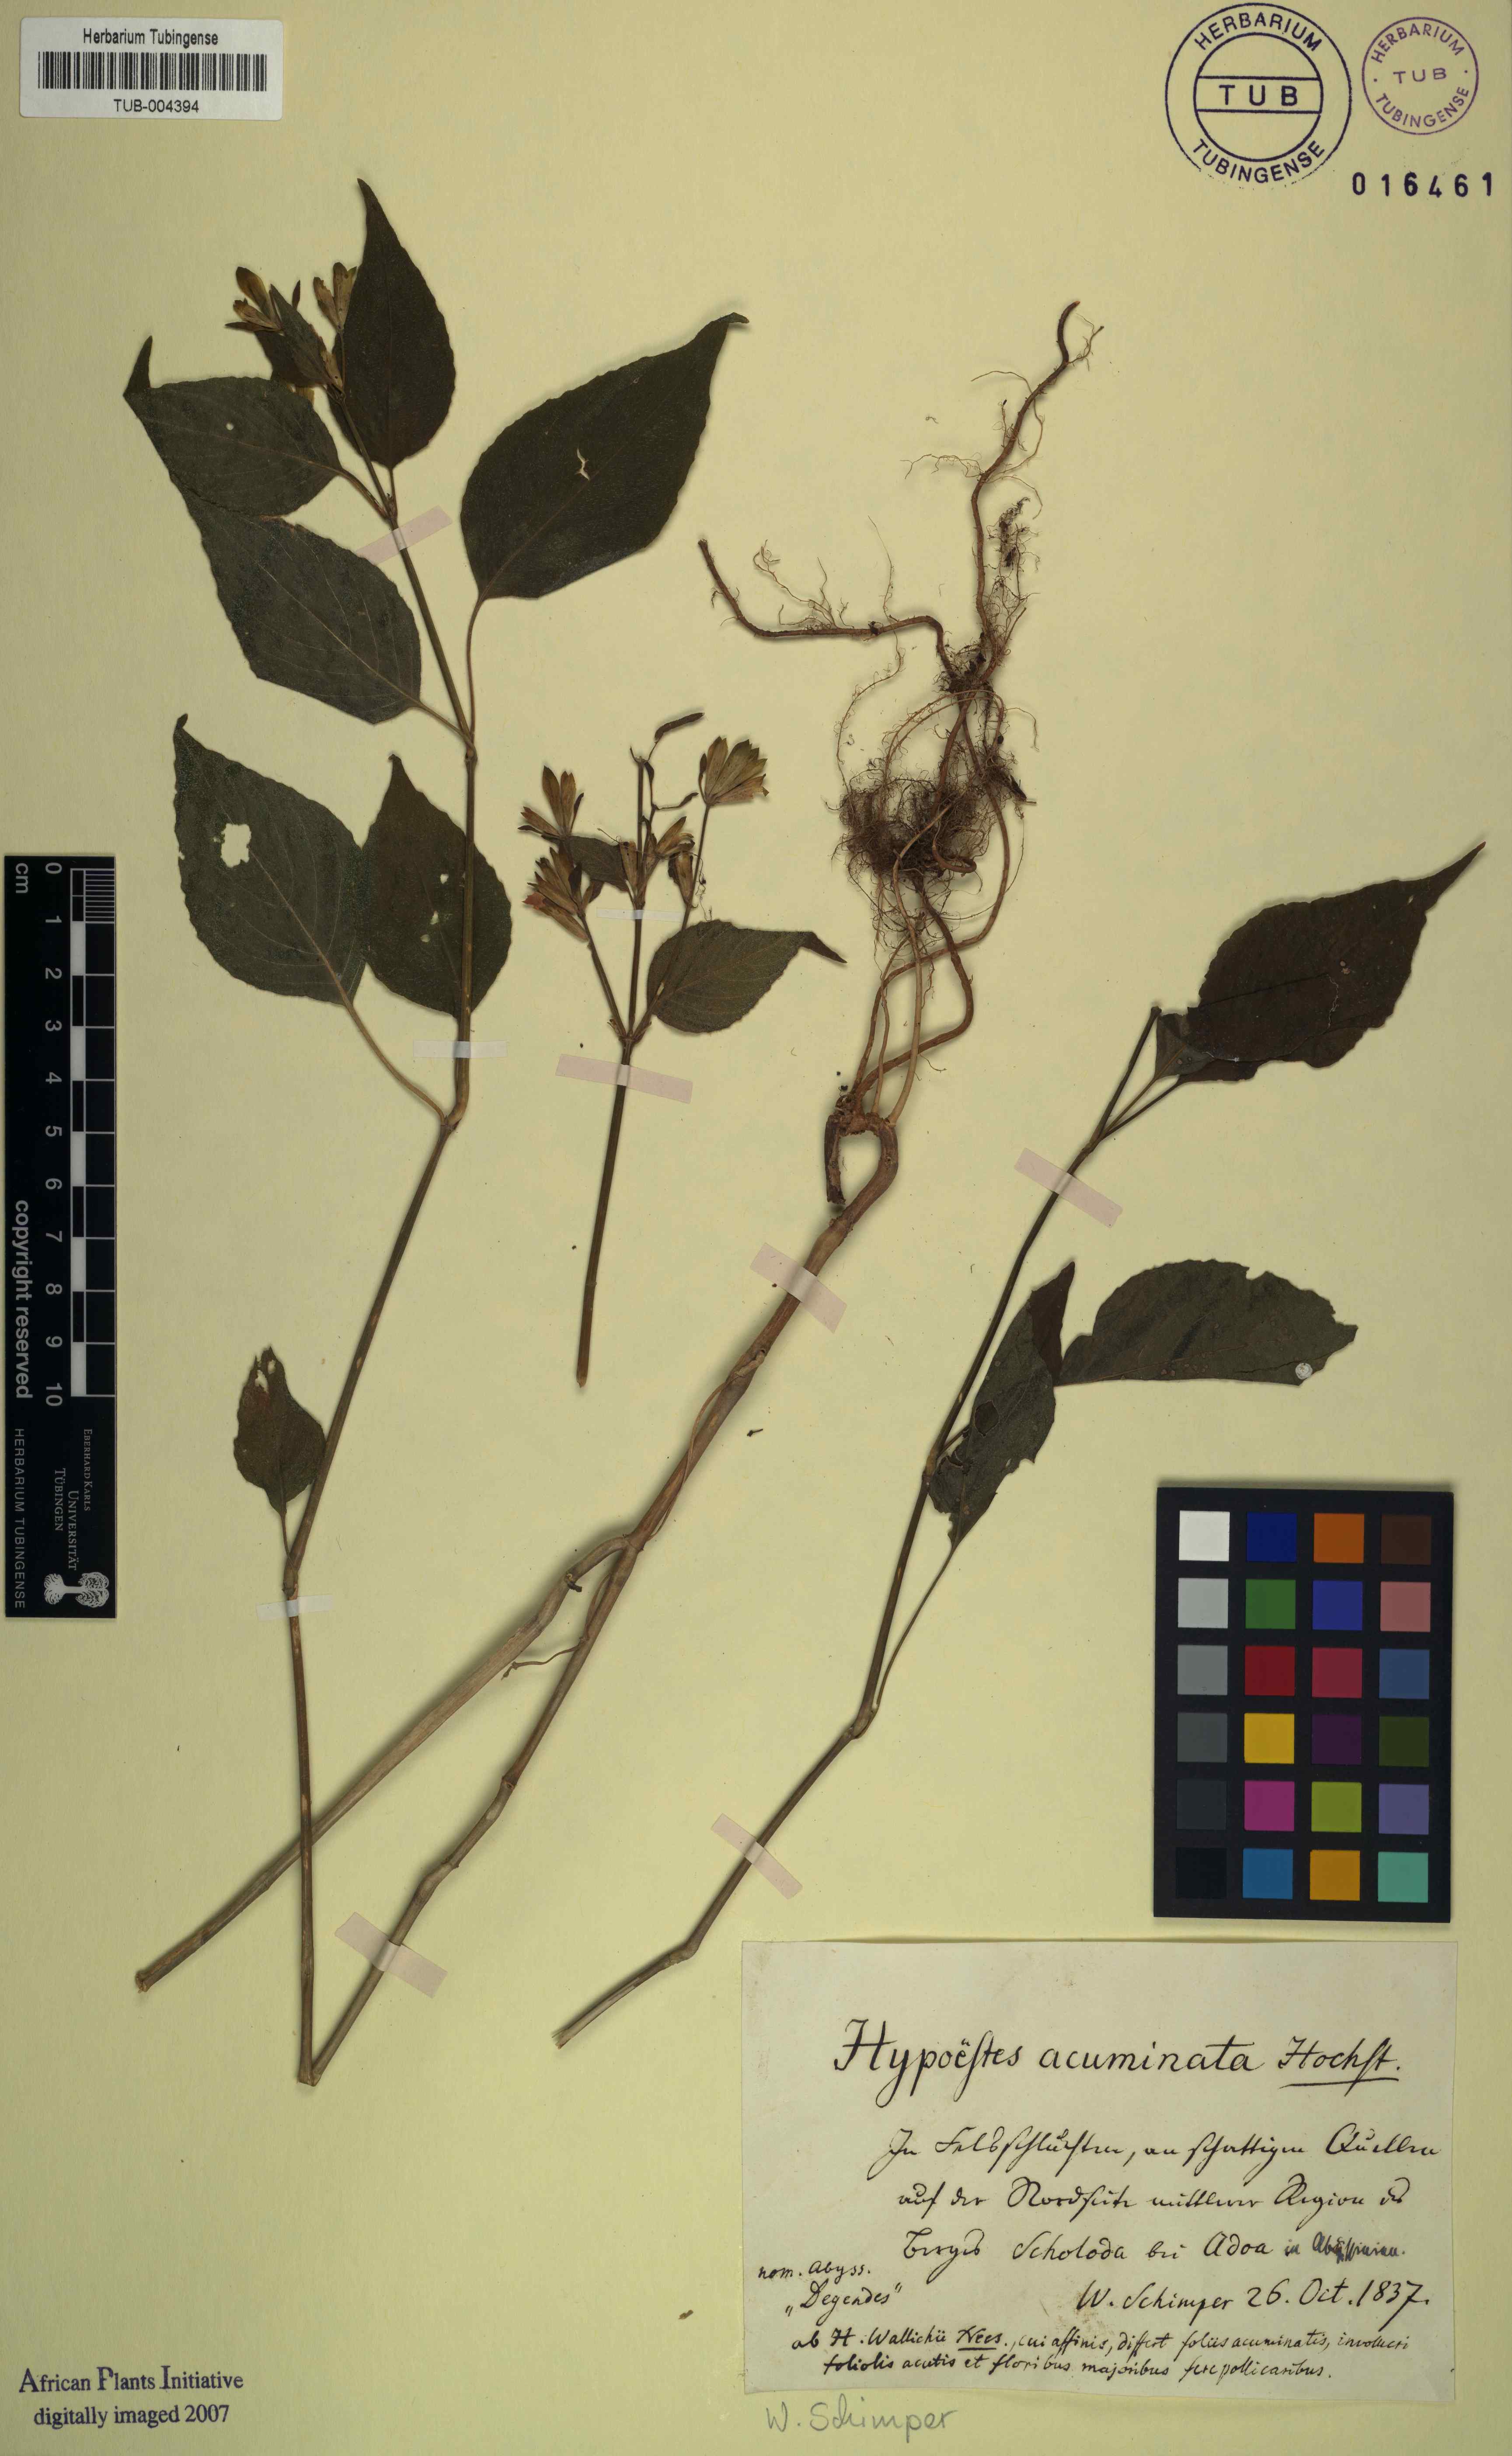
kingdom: Plantae
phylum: Tracheophyta
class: Magnoliopsida
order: Lamiales
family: Acanthaceae
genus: Hypoestes
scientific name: Hypoestes triflora
